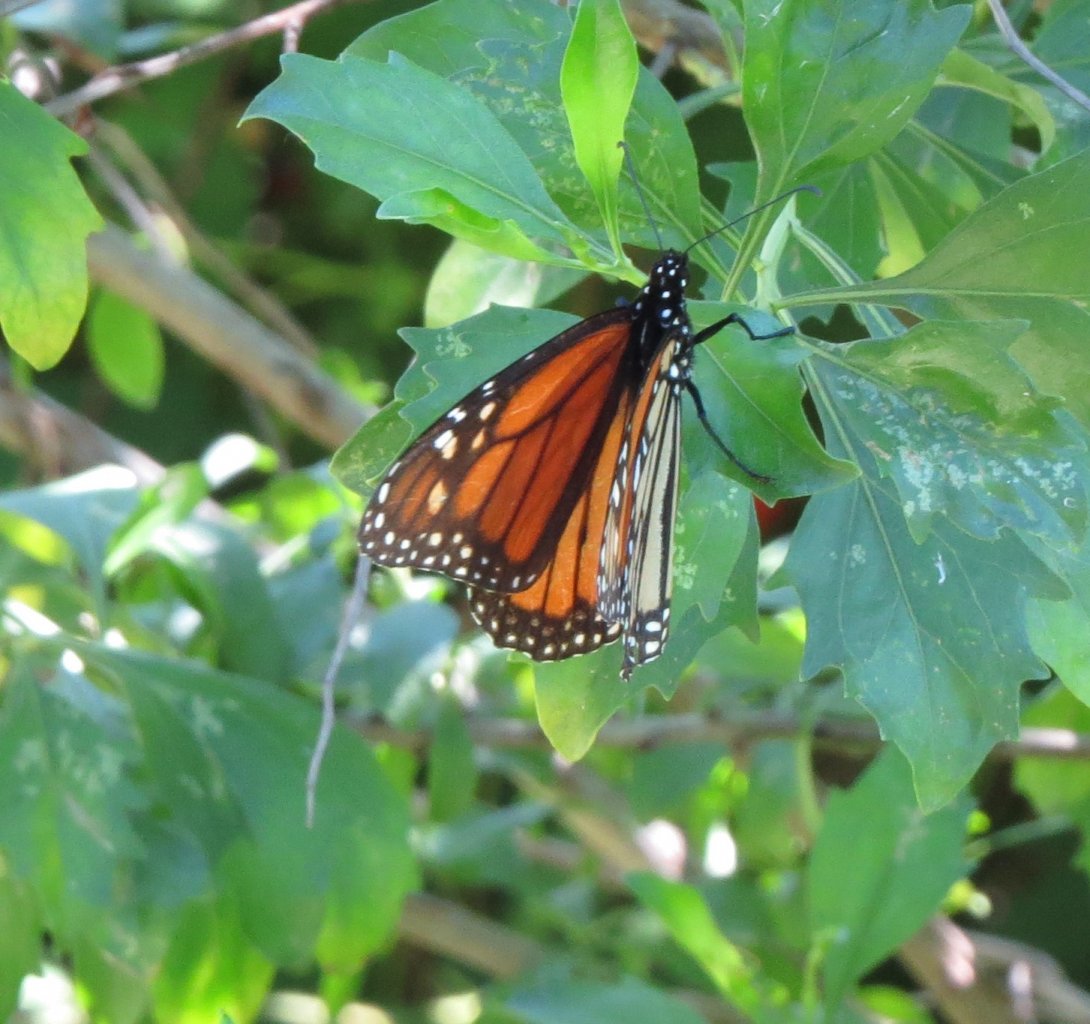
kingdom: Animalia
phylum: Arthropoda
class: Insecta
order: Lepidoptera
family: Nymphalidae
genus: Danaus
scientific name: Danaus plexippus
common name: Monarch
